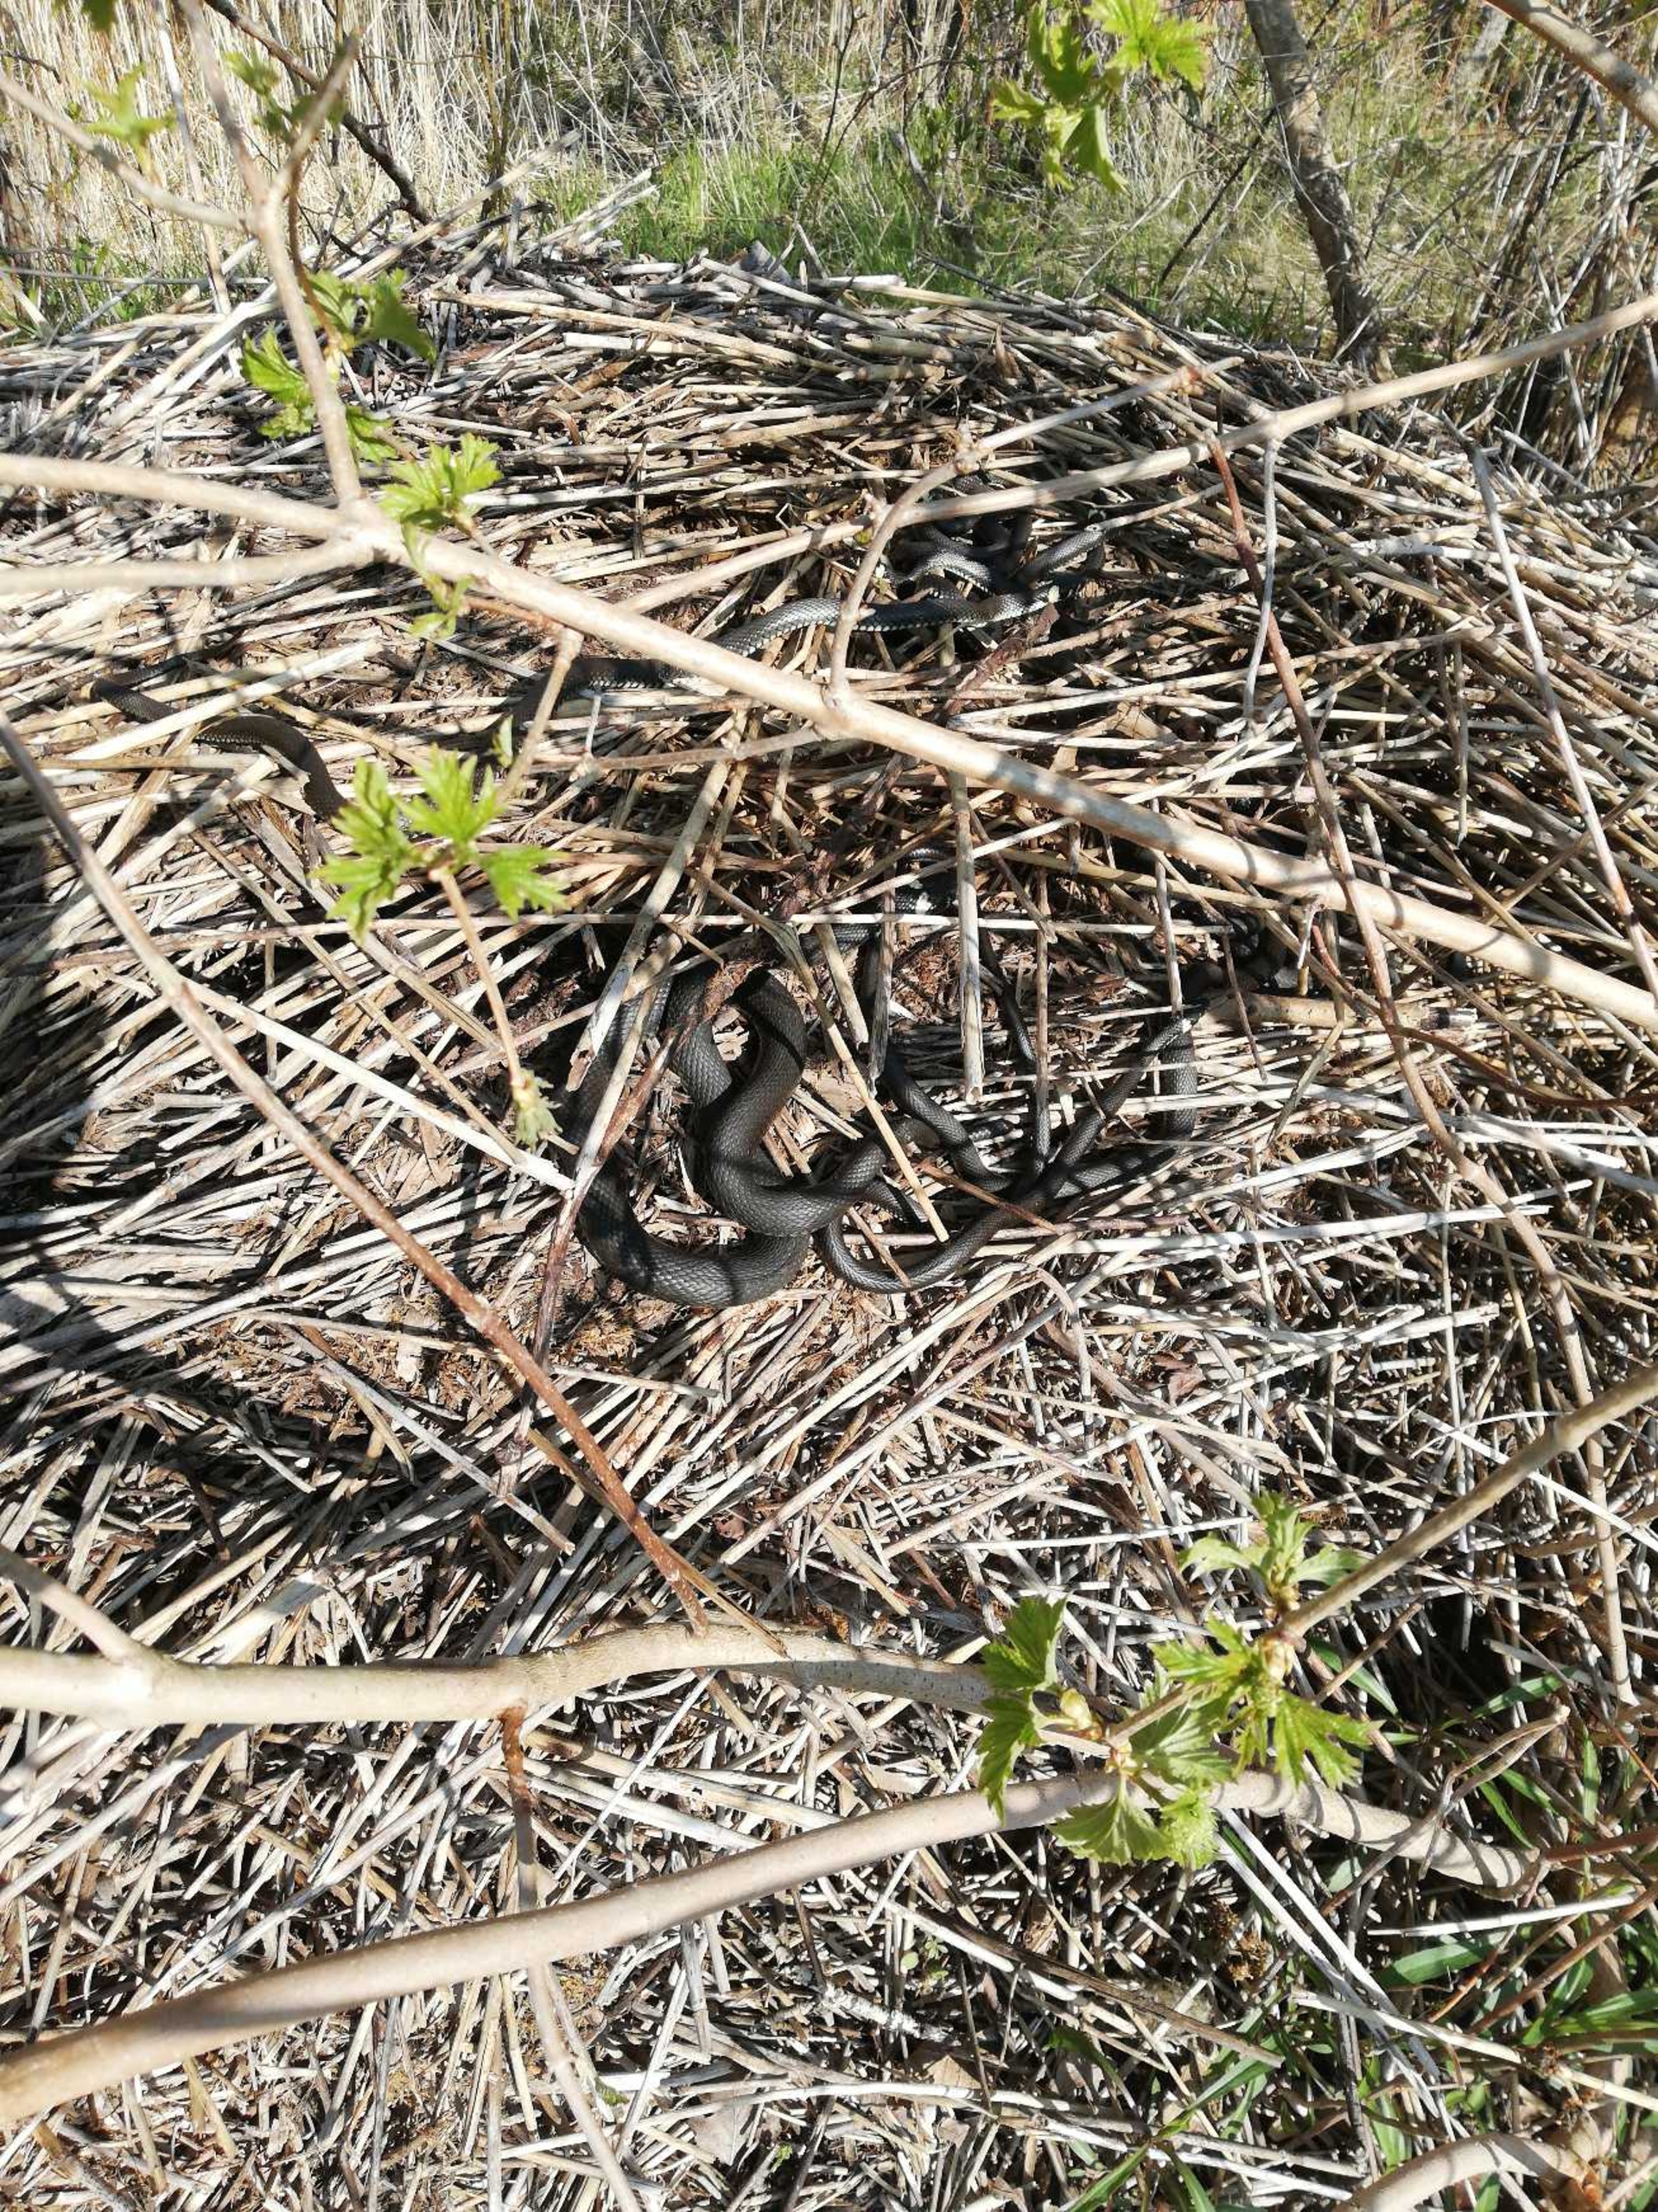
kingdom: Animalia
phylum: Chordata
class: Squamata
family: Colubridae
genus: Natrix
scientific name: Natrix natrix
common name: Snog
